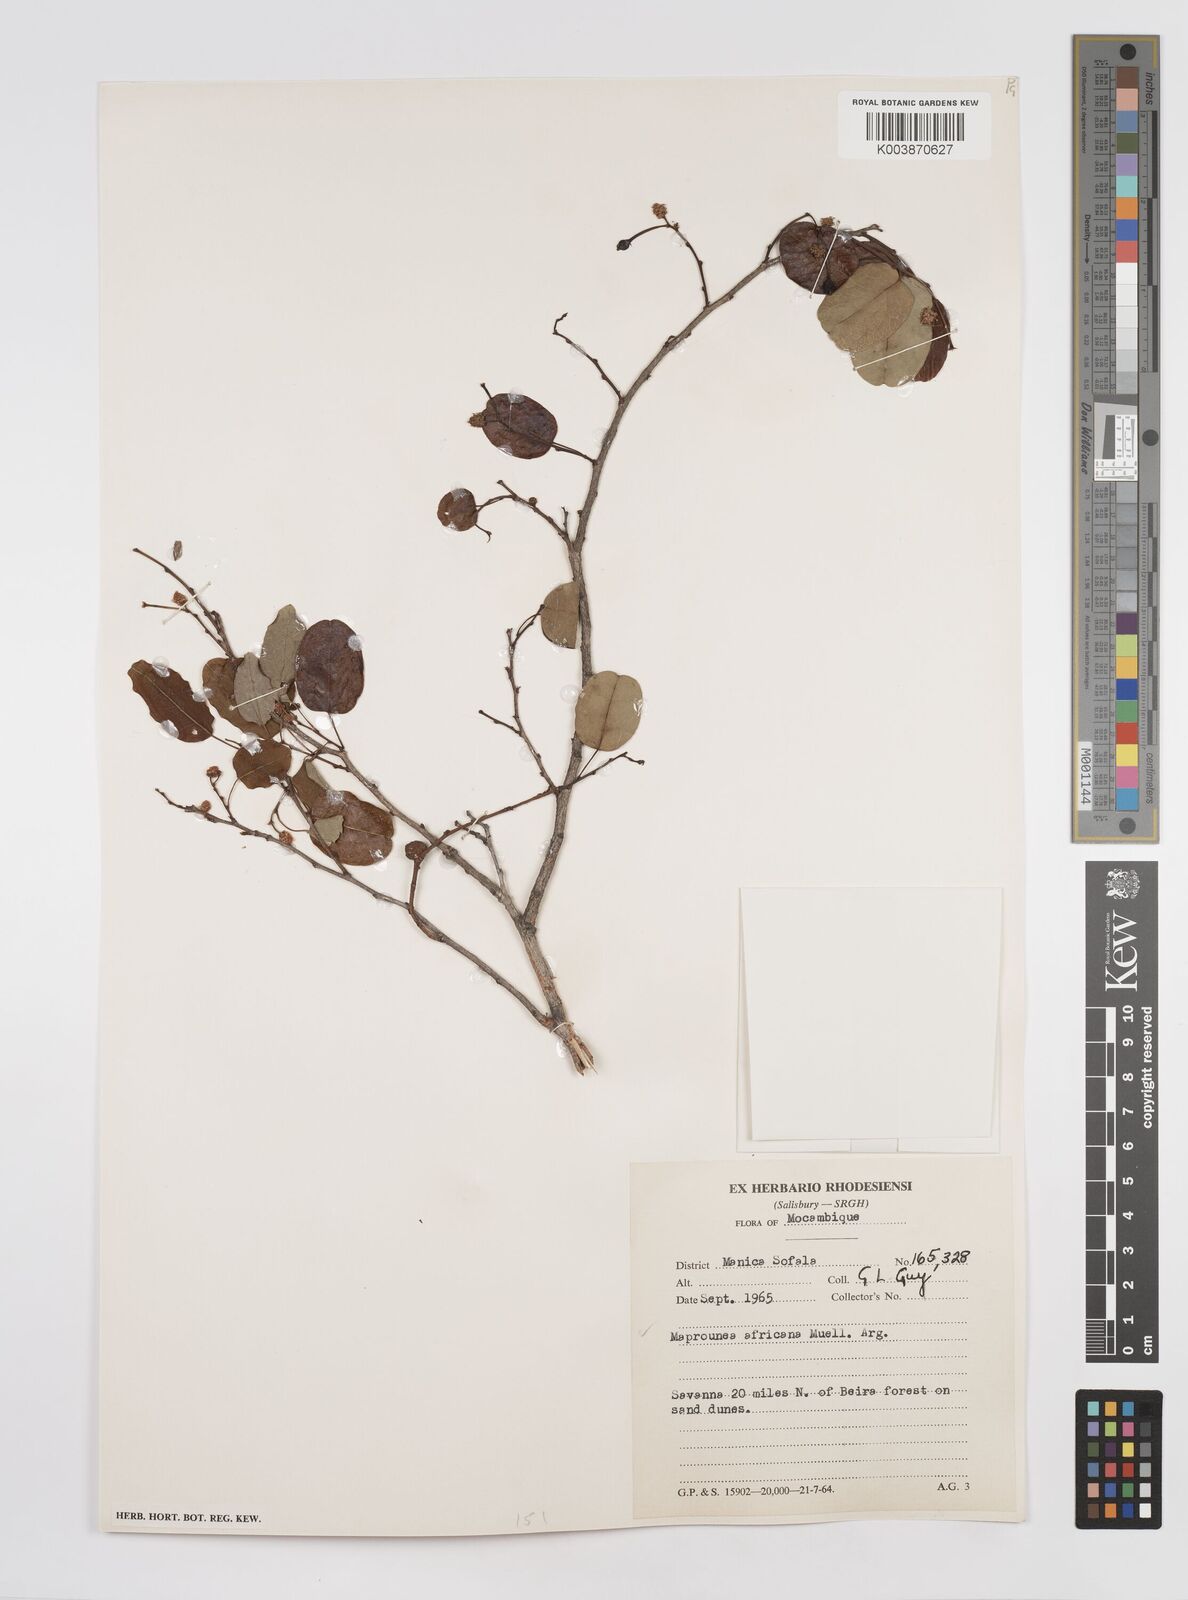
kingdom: Plantae
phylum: Tracheophyta
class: Magnoliopsida
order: Malpighiales
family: Euphorbiaceae
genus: Maprounea
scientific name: Maprounea africana
